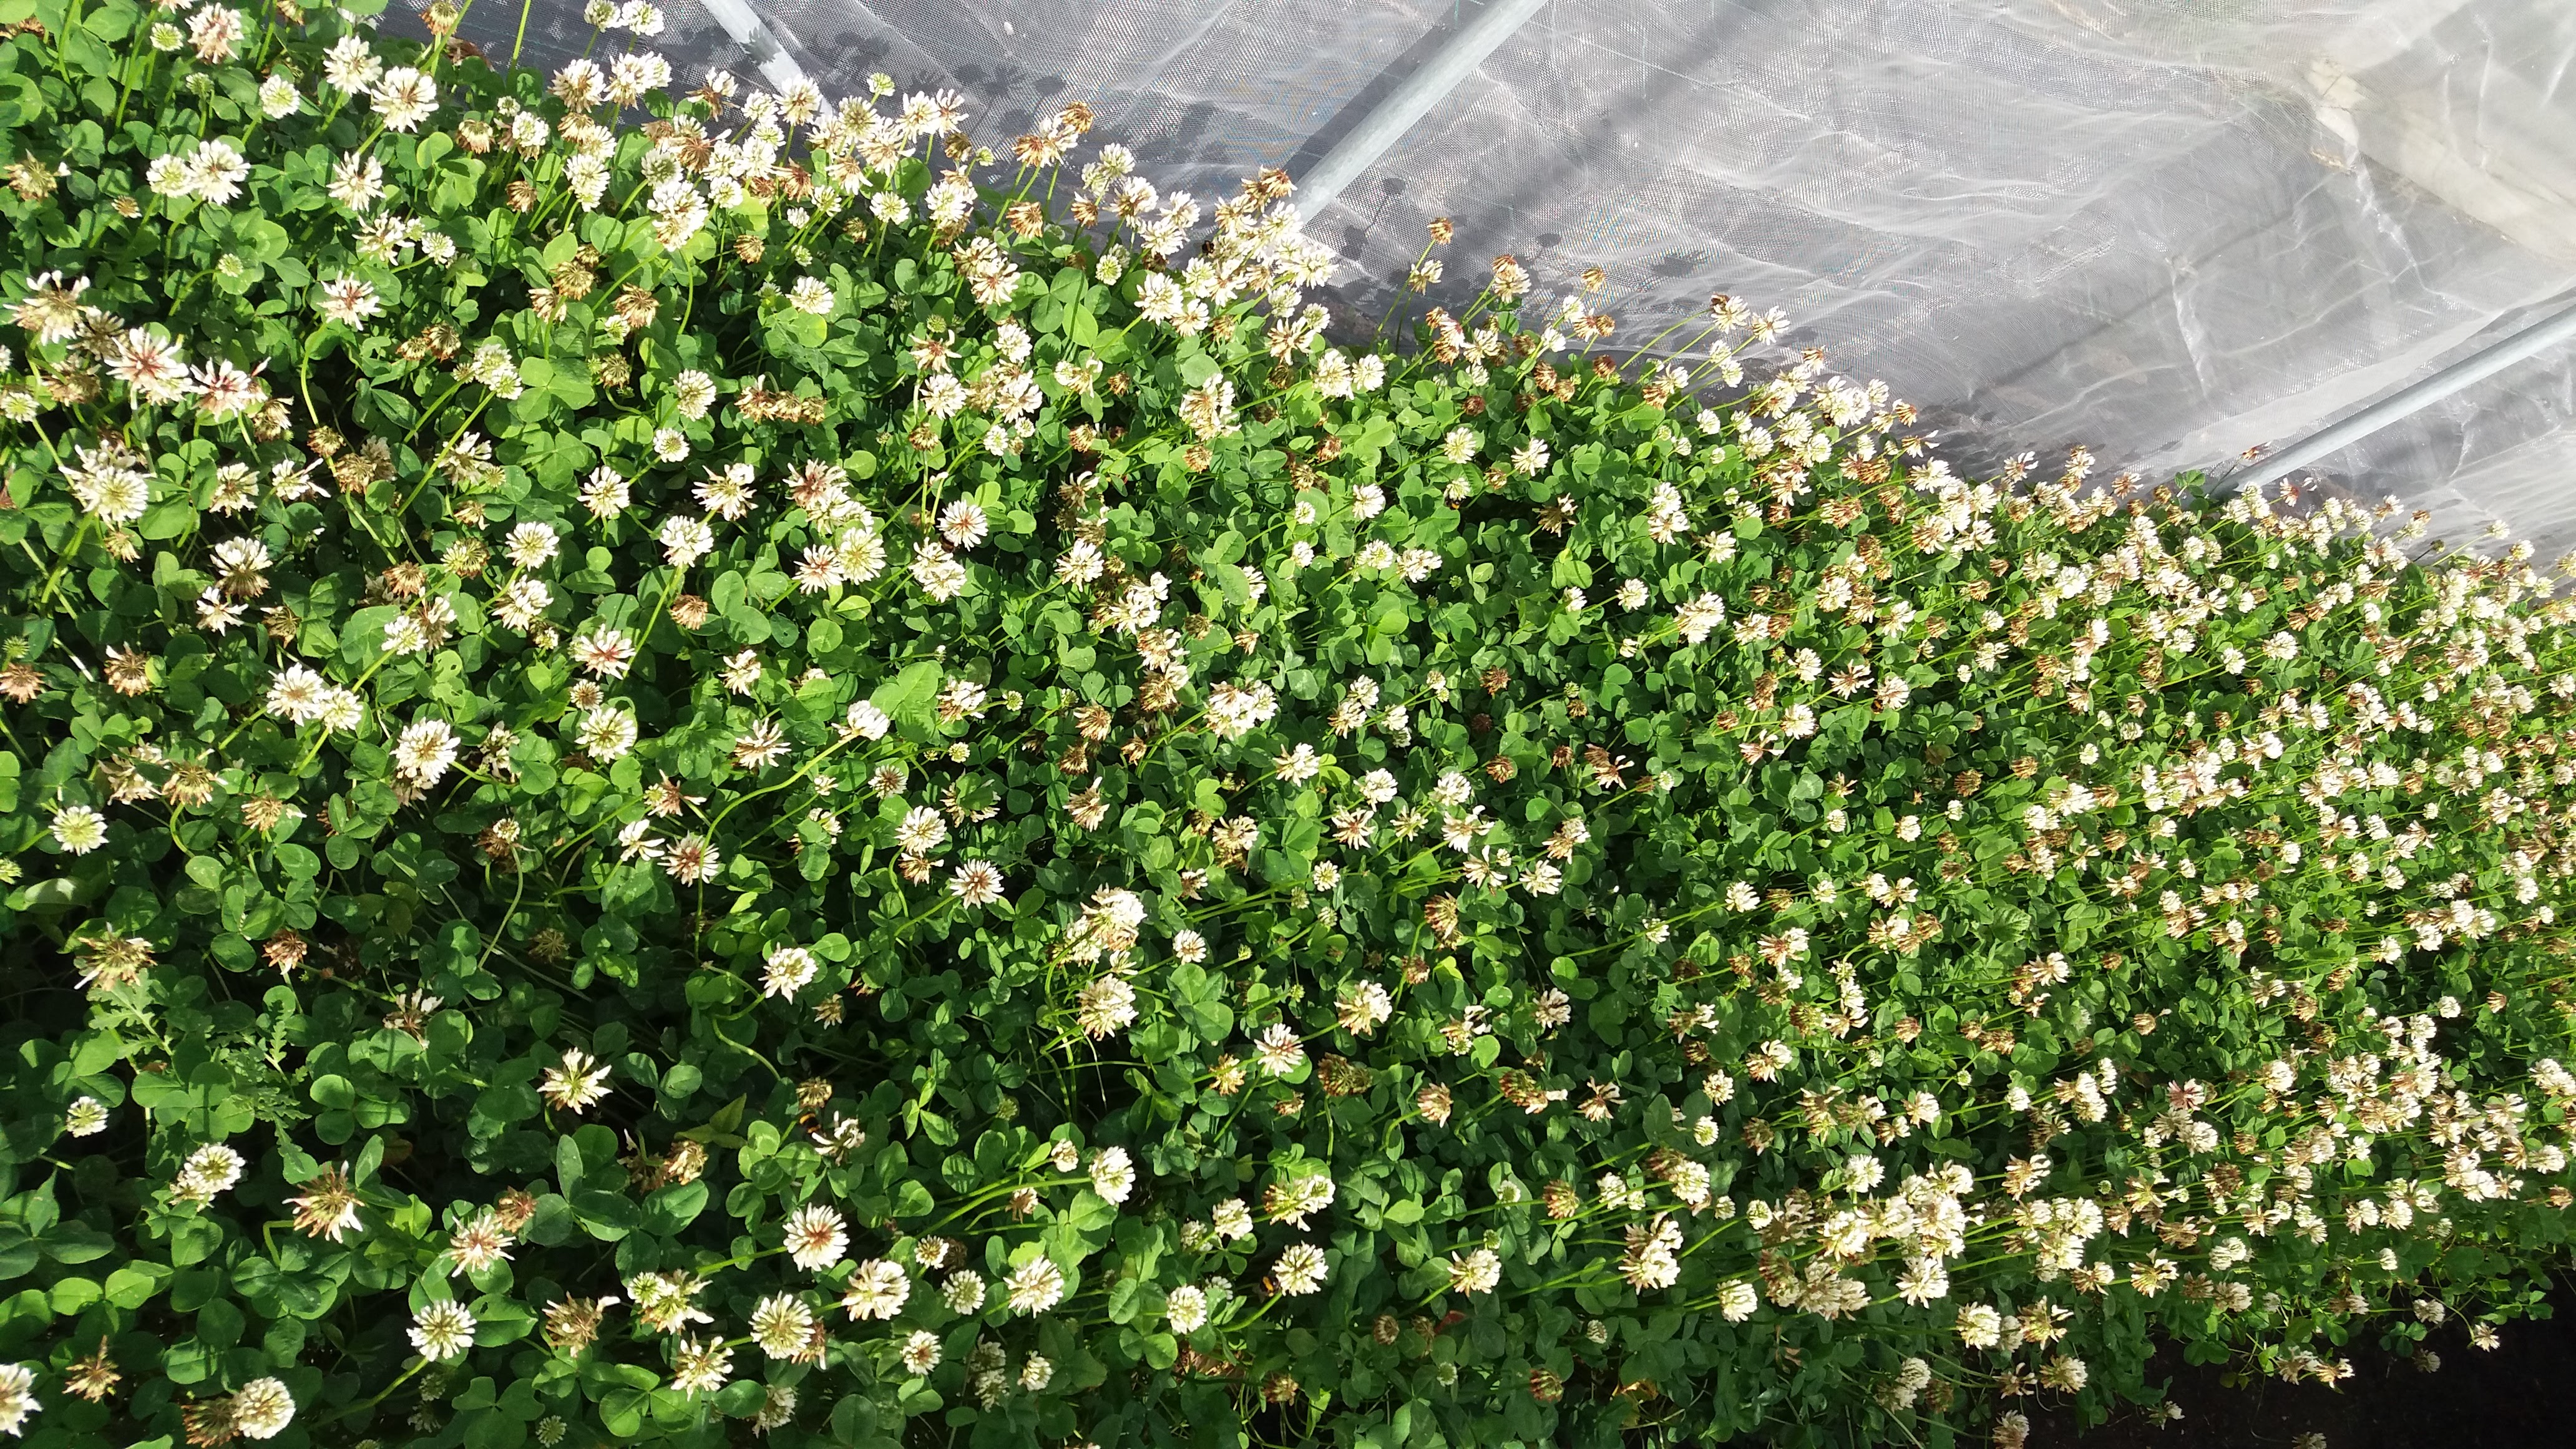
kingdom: Plantae
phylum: Tracheophyta
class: Magnoliopsida
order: Fabales
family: Fabaceae
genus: Trifolium
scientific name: Trifolium repens
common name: White clover
